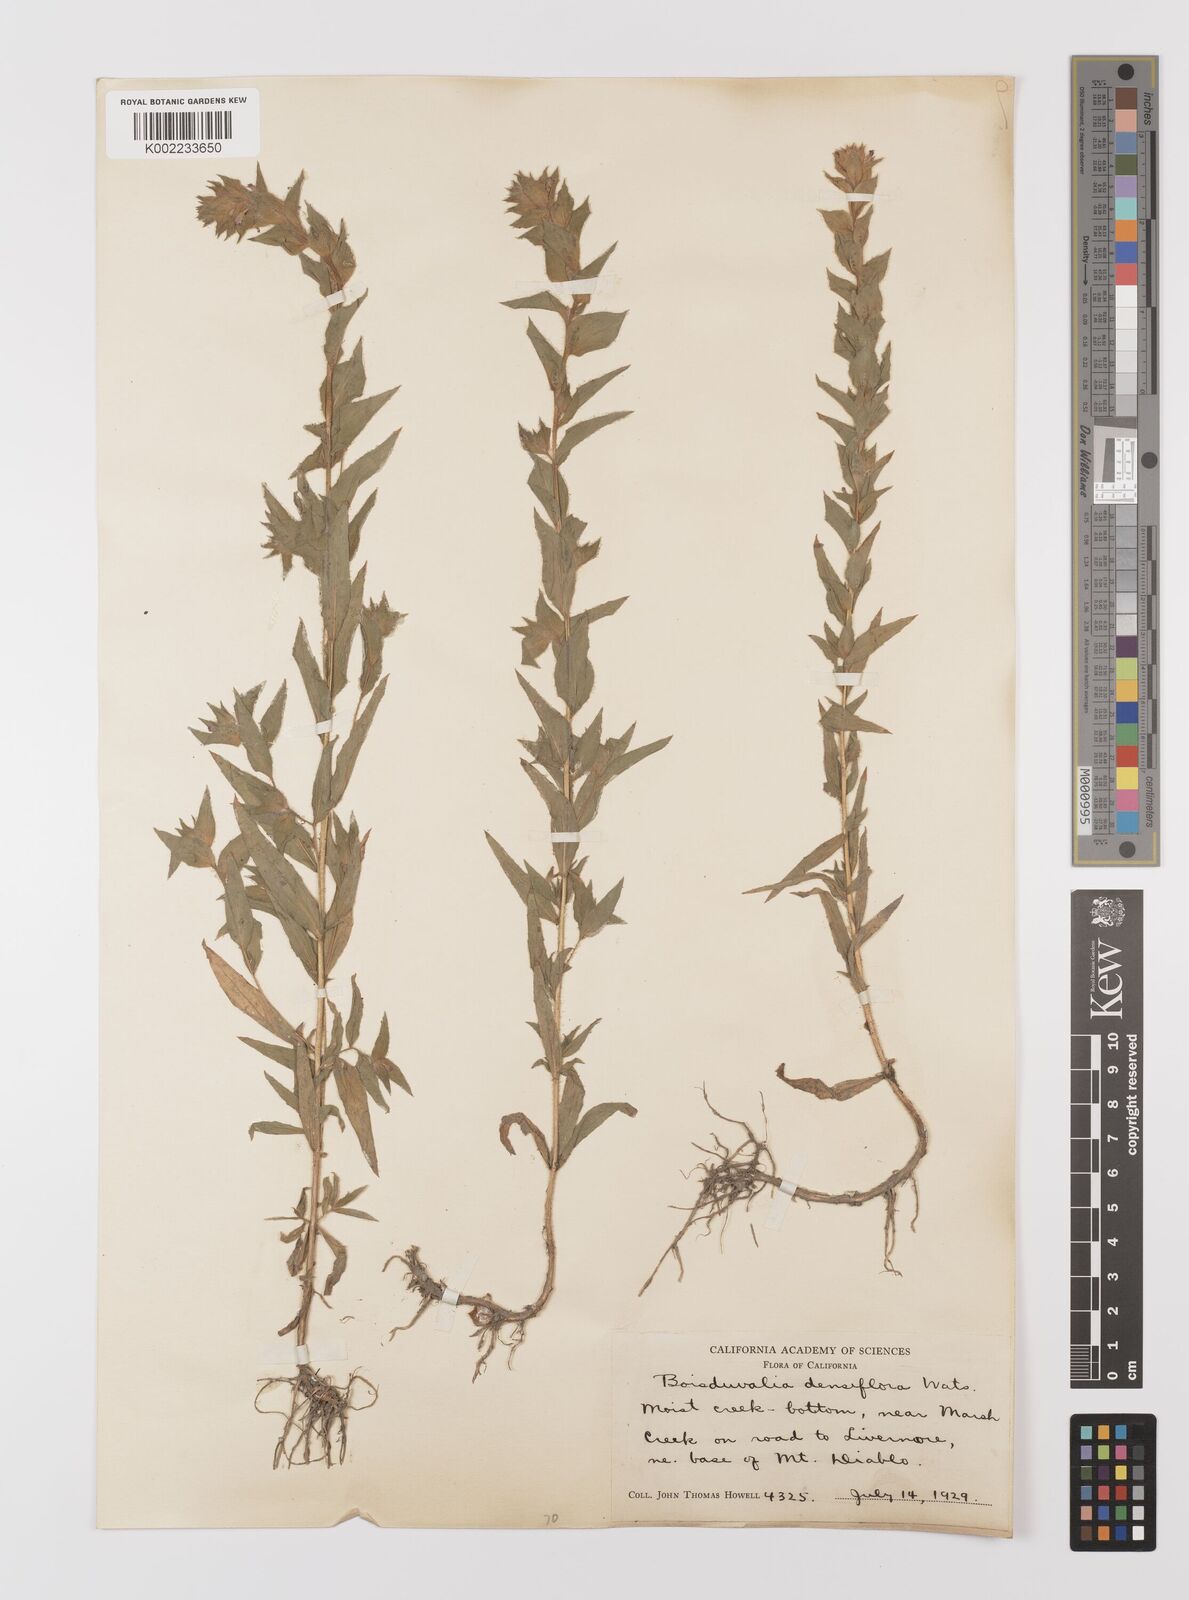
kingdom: Plantae
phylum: Tracheophyta
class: Magnoliopsida
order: Myrtales
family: Onagraceae
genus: Epilobium
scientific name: Epilobium densiflorum
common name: Dense spike-primrose
